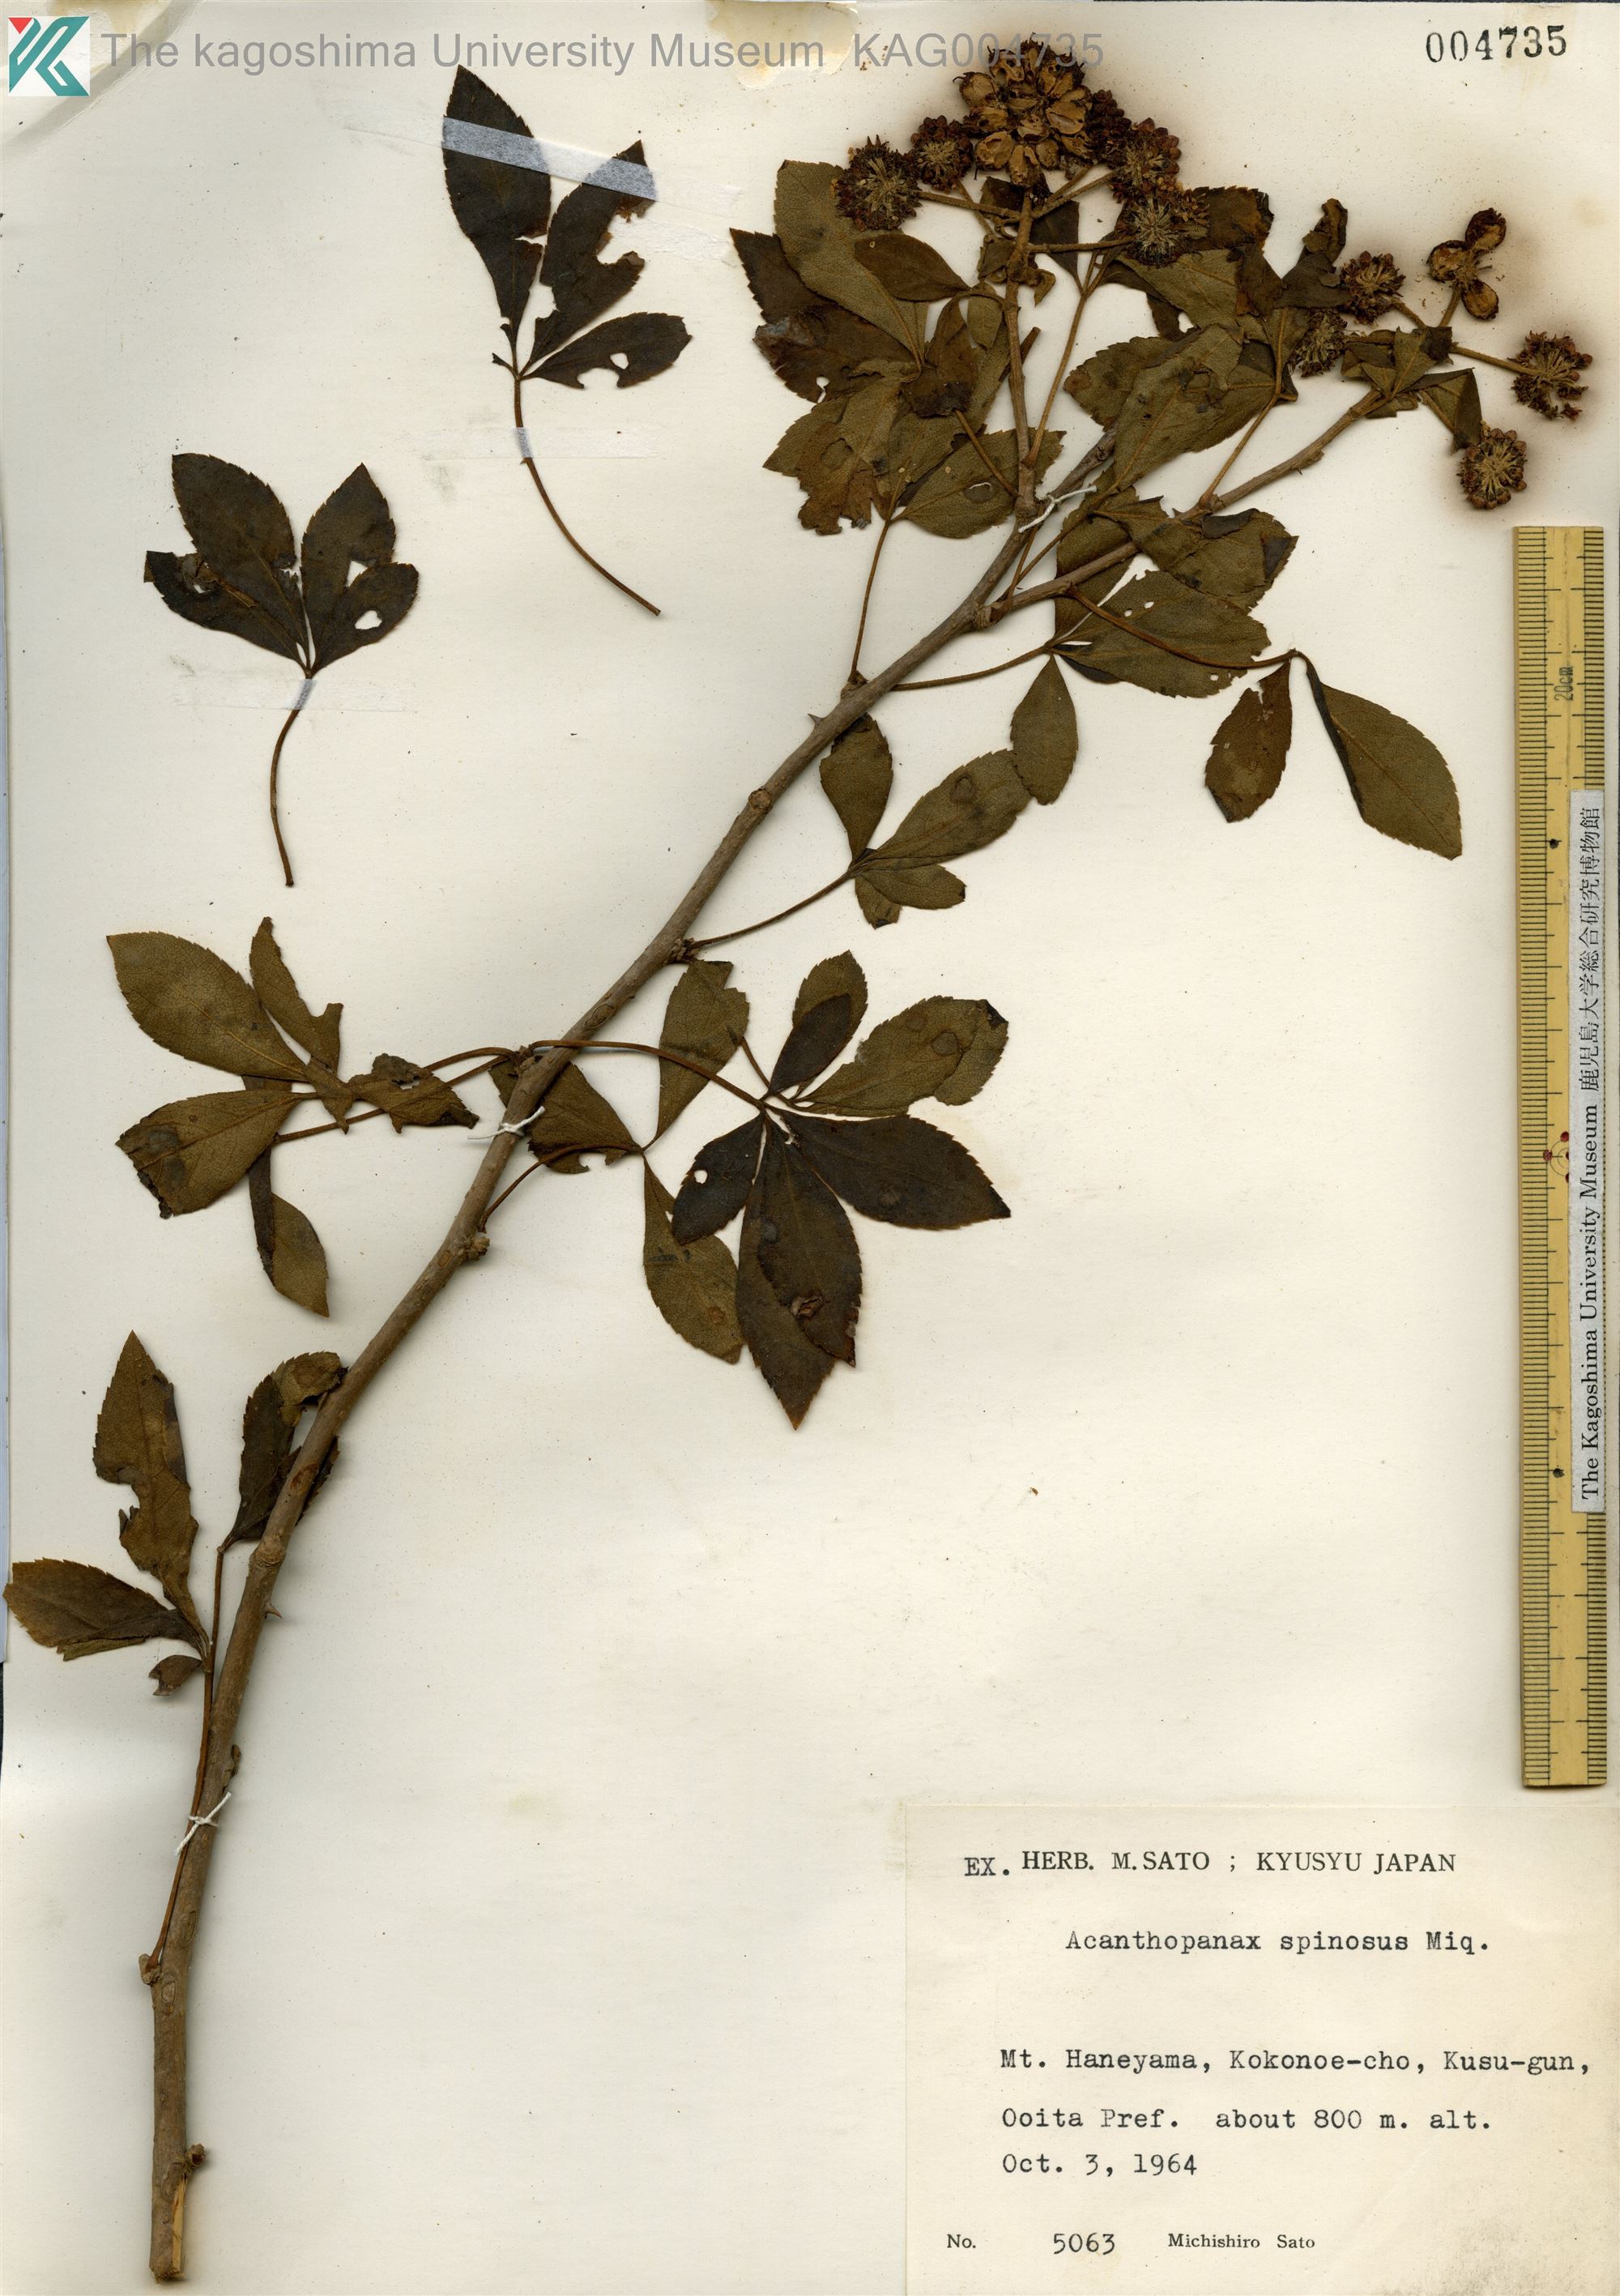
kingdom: Plantae
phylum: Tracheophyta
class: Magnoliopsida
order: Apiales
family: Araliaceae
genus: Eleutherococcus
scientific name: Eleutherococcus nodiflorus
